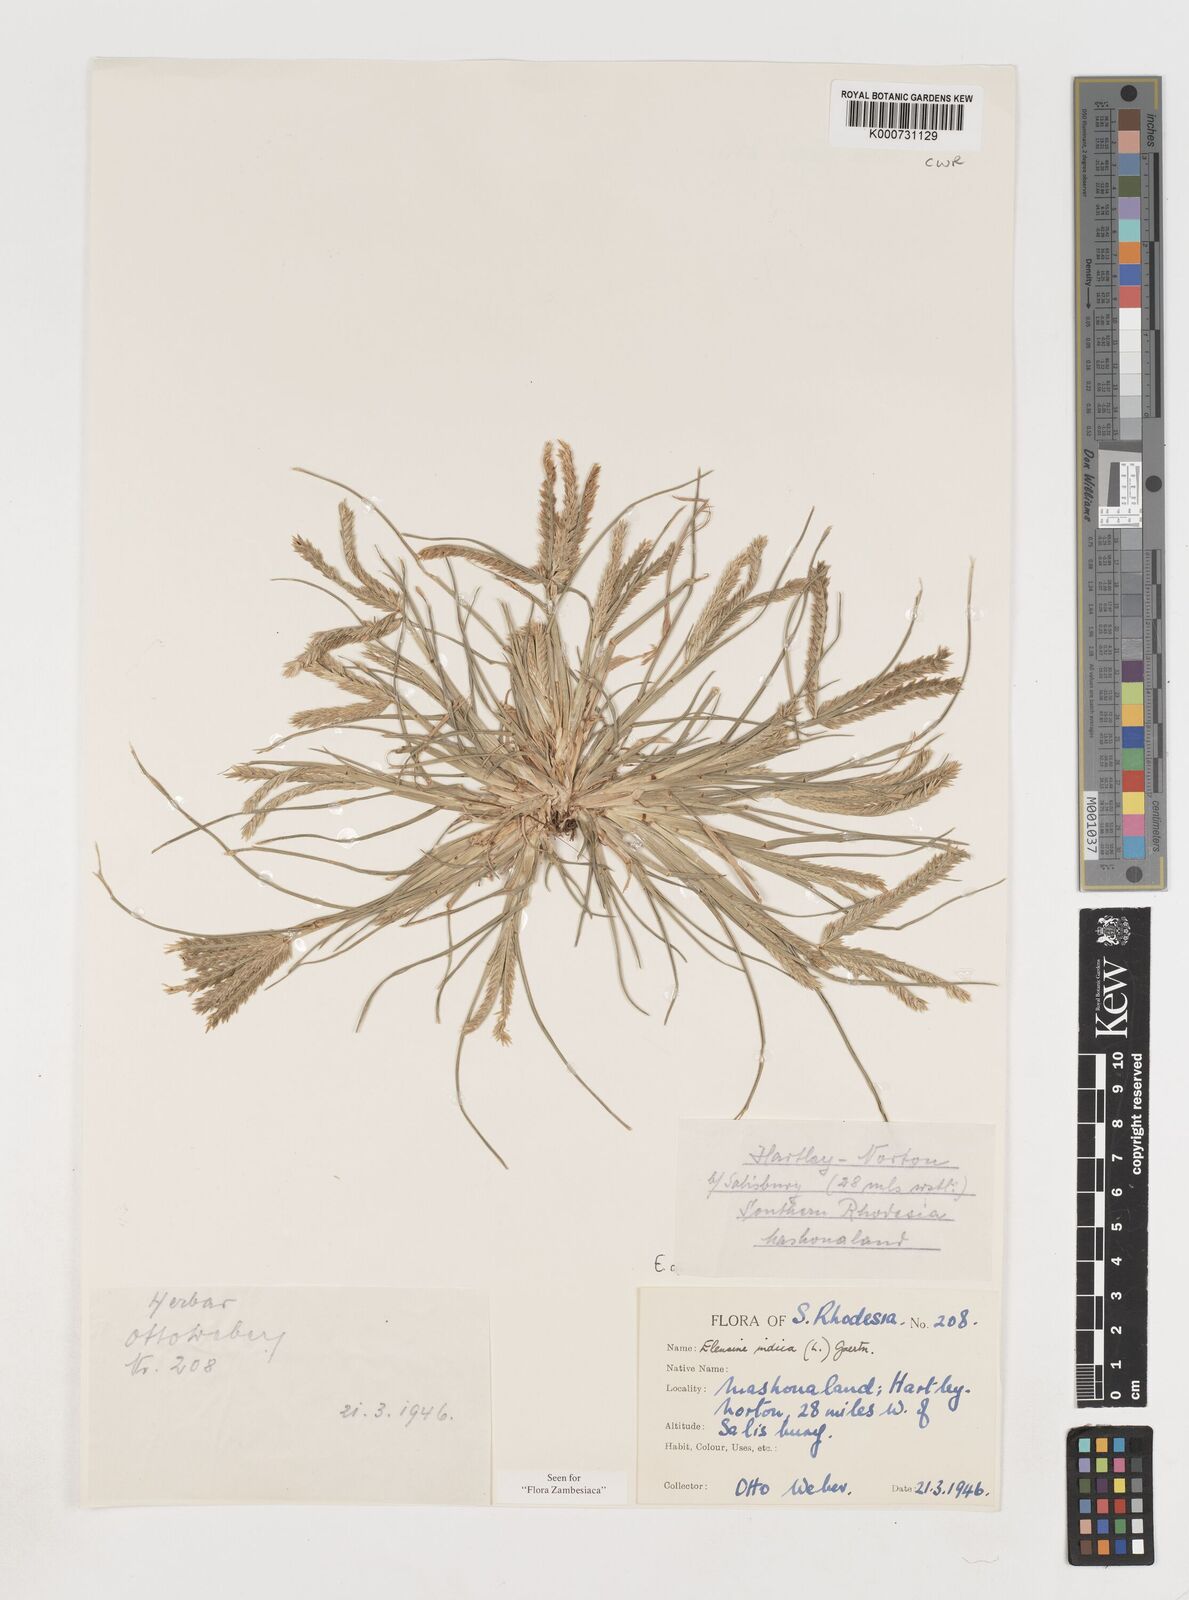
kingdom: Plantae
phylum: Tracheophyta
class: Liliopsida
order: Poales
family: Poaceae
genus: Eleusine
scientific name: Eleusine indica
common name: Yard-grass
